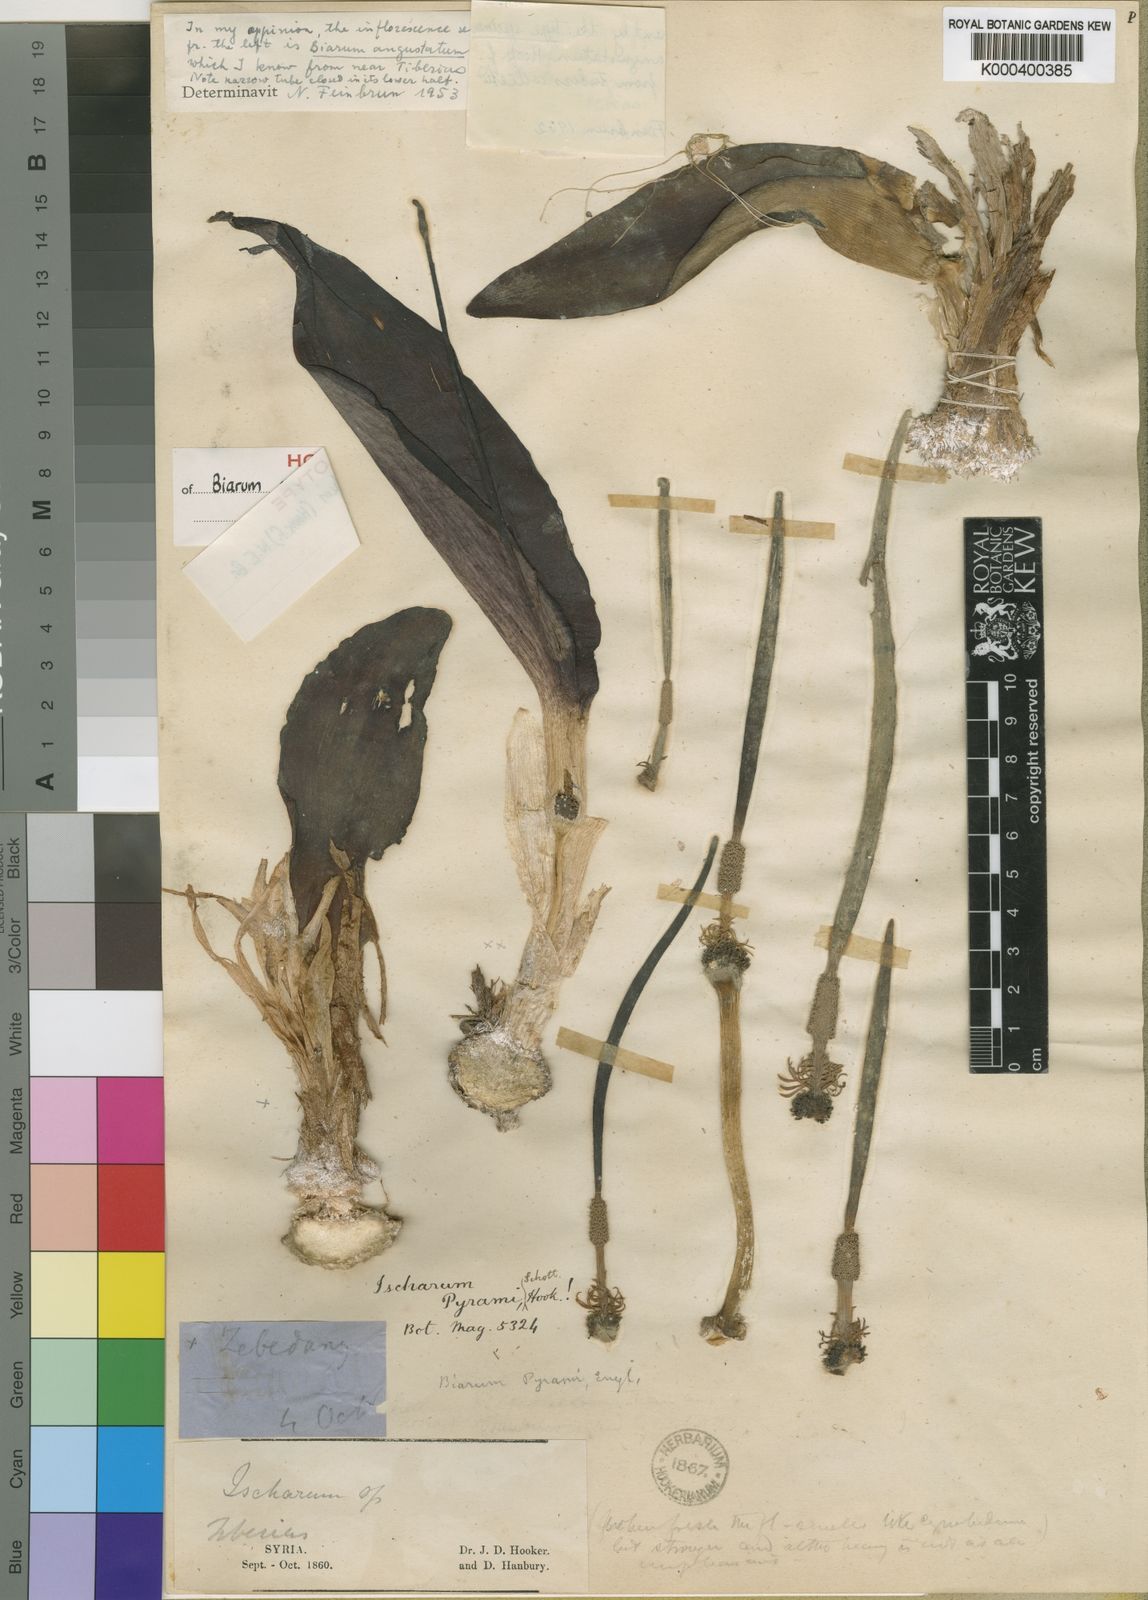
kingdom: Plantae
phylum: Tracheophyta
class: Liliopsida
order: Alismatales
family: Araceae
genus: Biarum
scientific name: Biarum angustatum
